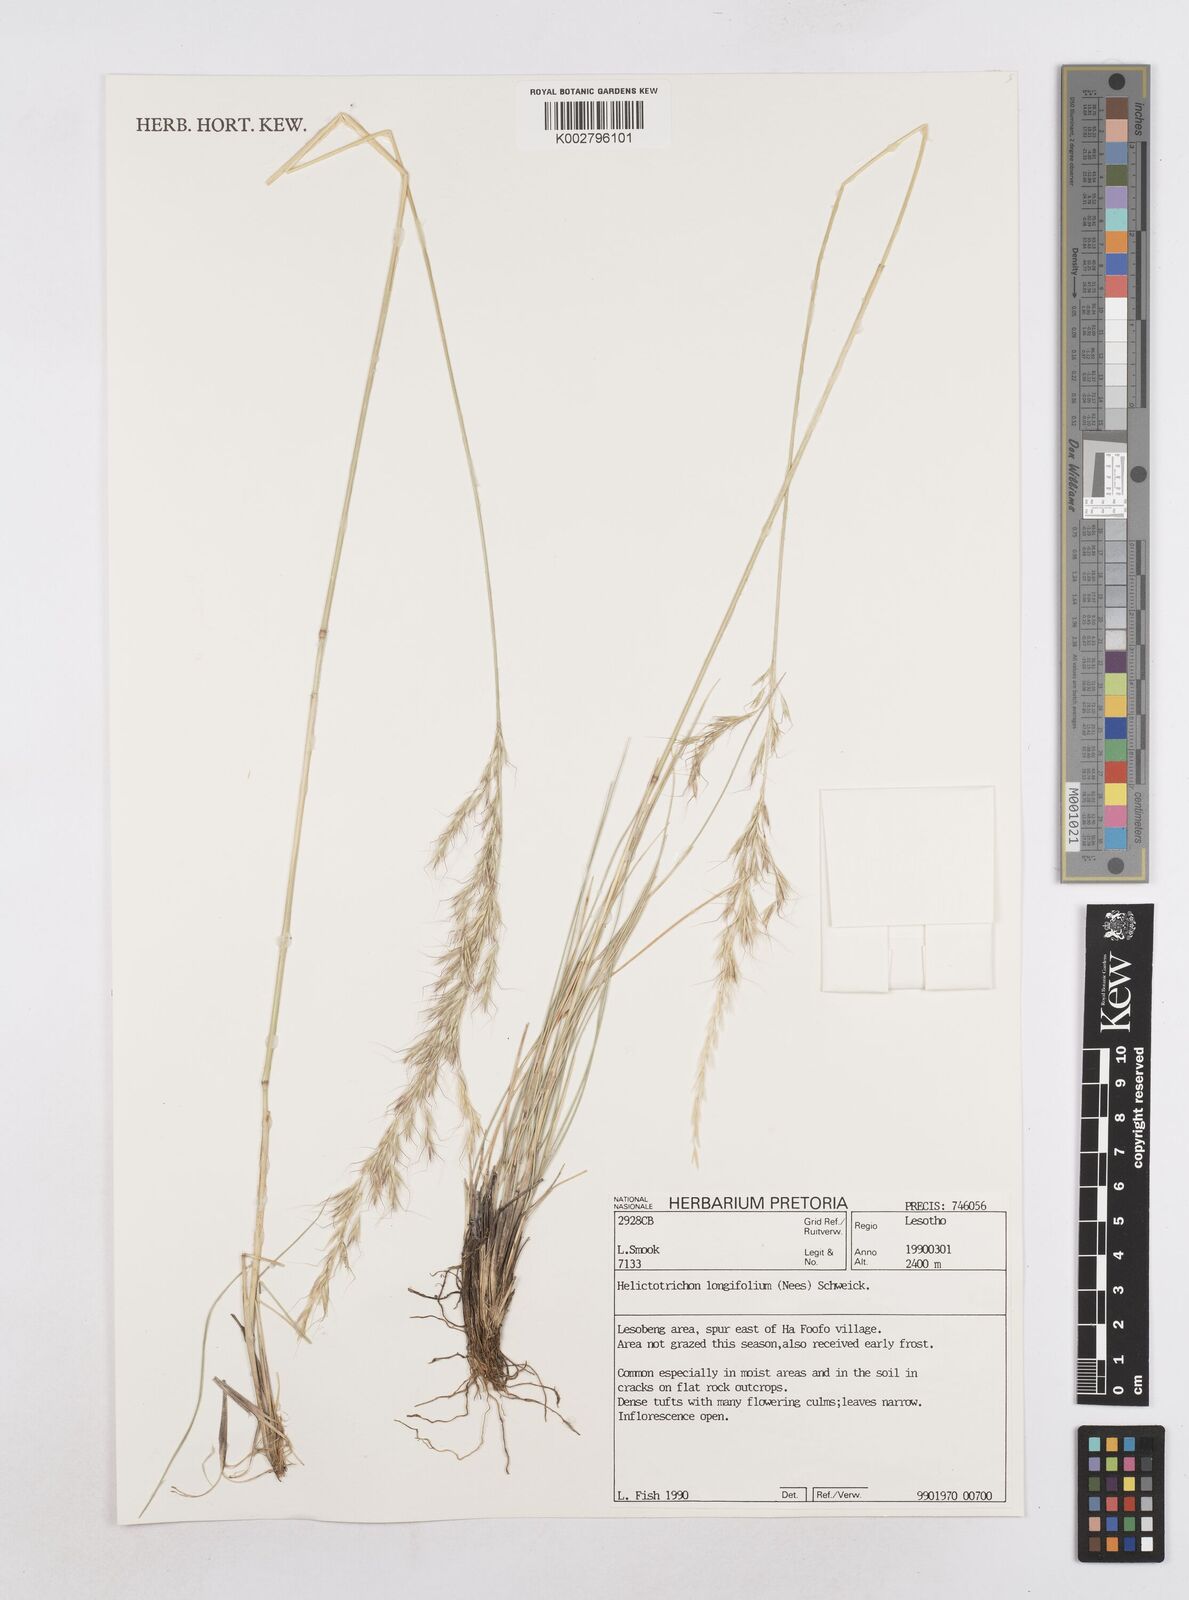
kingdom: Plantae
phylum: Tracheophyta
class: Liliopsida
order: Poales
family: Poaceae
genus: Trisetopsis
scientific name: Trisetopsis longifolia
